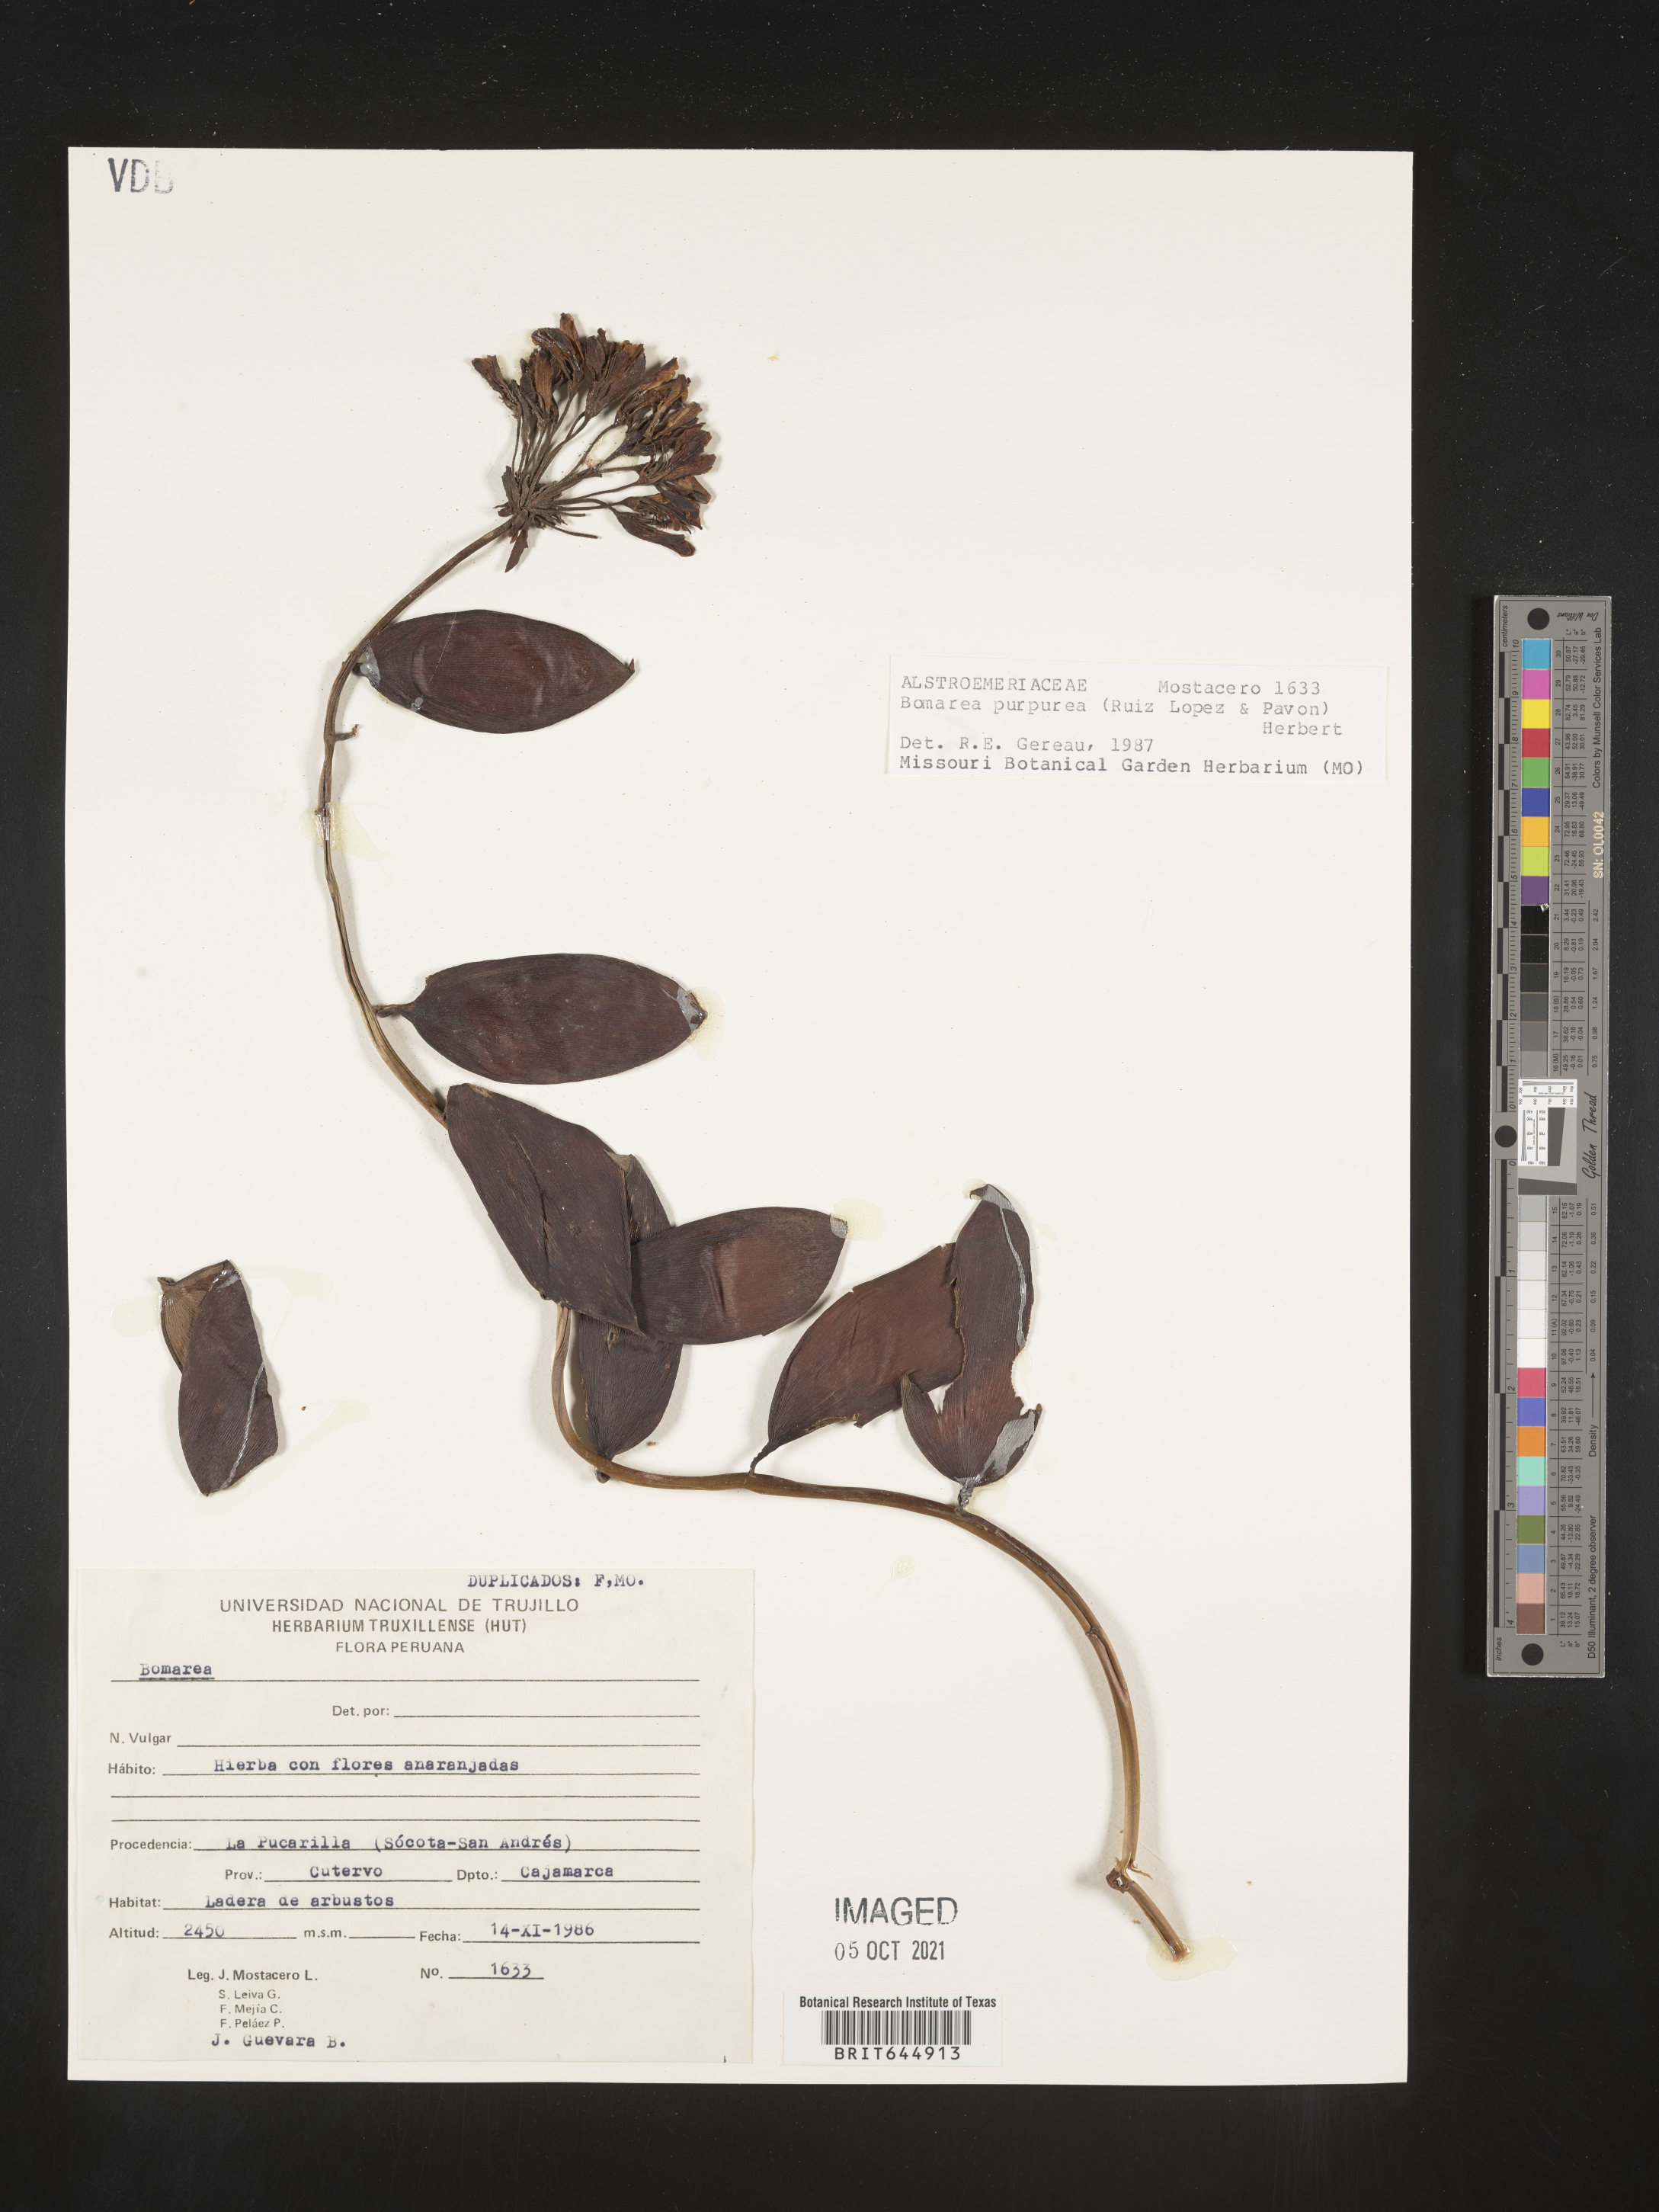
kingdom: Plantae
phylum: Tracheophyta
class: Liliopsida
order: Liliales
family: Alstroemeriaceae
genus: Bomarea
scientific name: Bomarea purpurea
